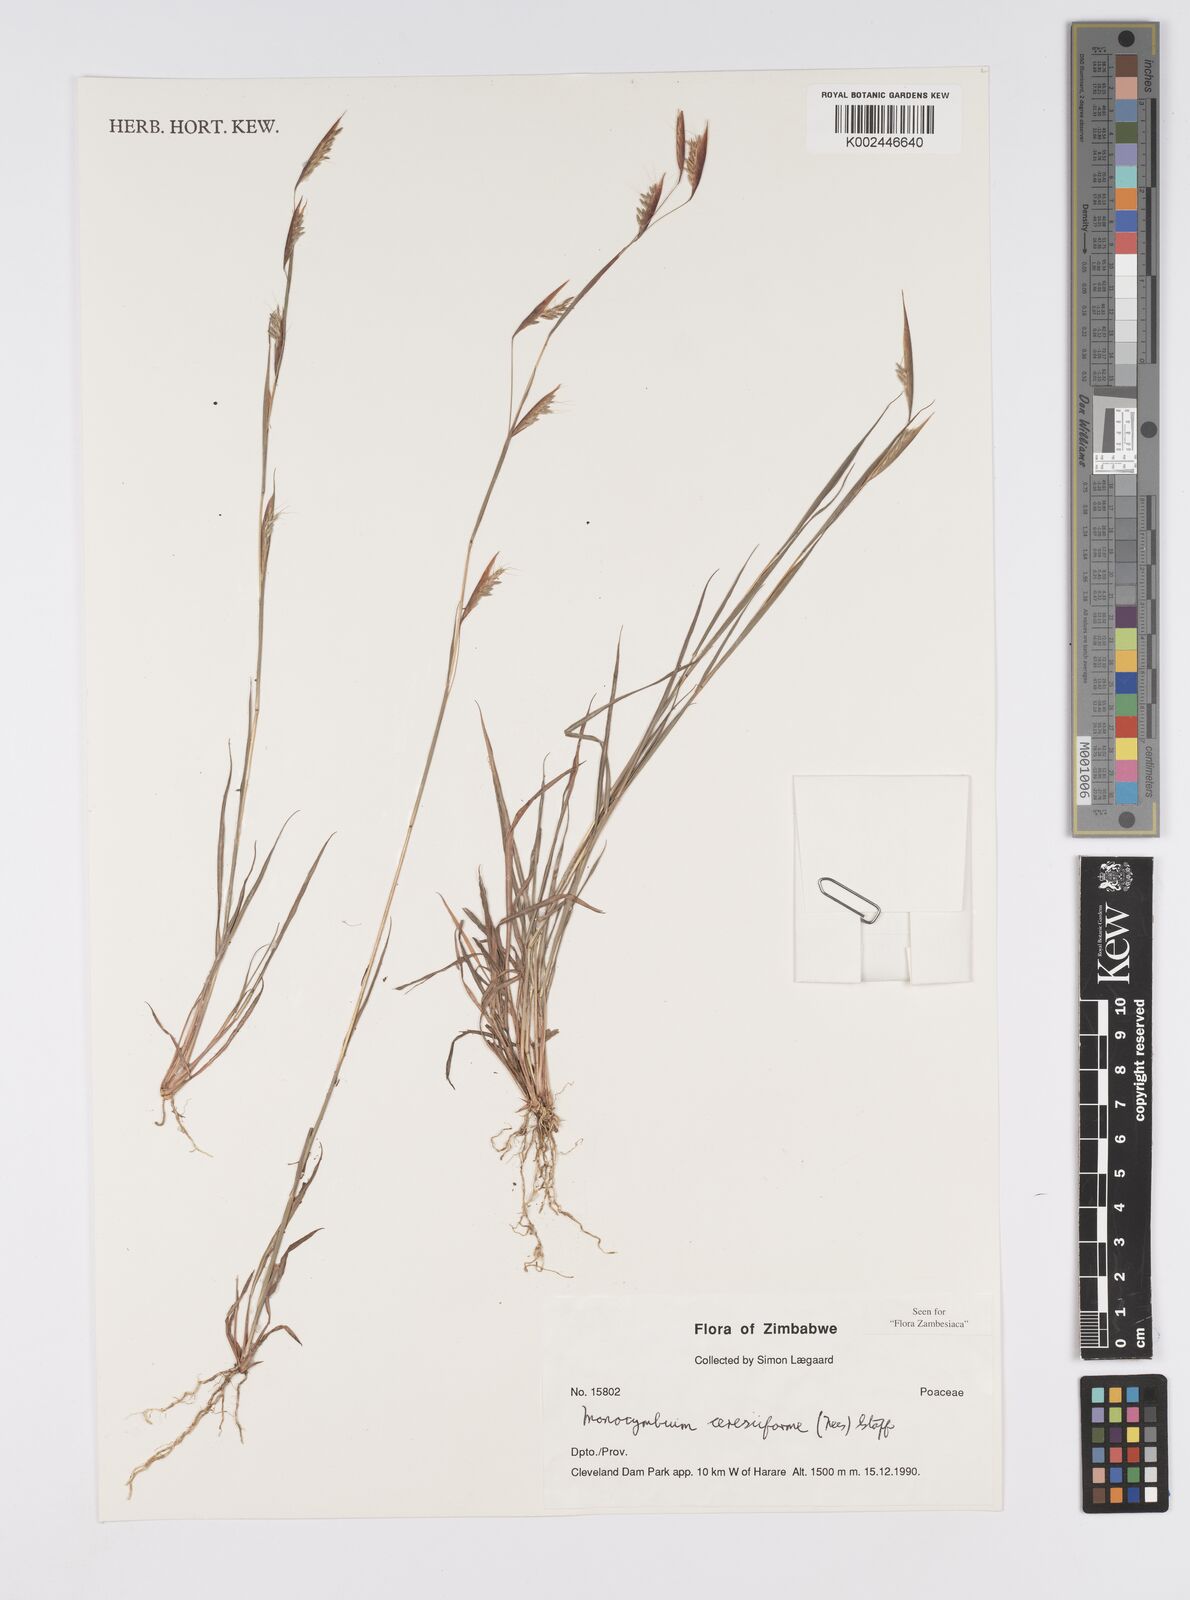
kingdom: Plantae
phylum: Tracheophyta
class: Liliopsida
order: Poales
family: Poaceae
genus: Monocymbium
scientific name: Monocymbium ceresiiforme
